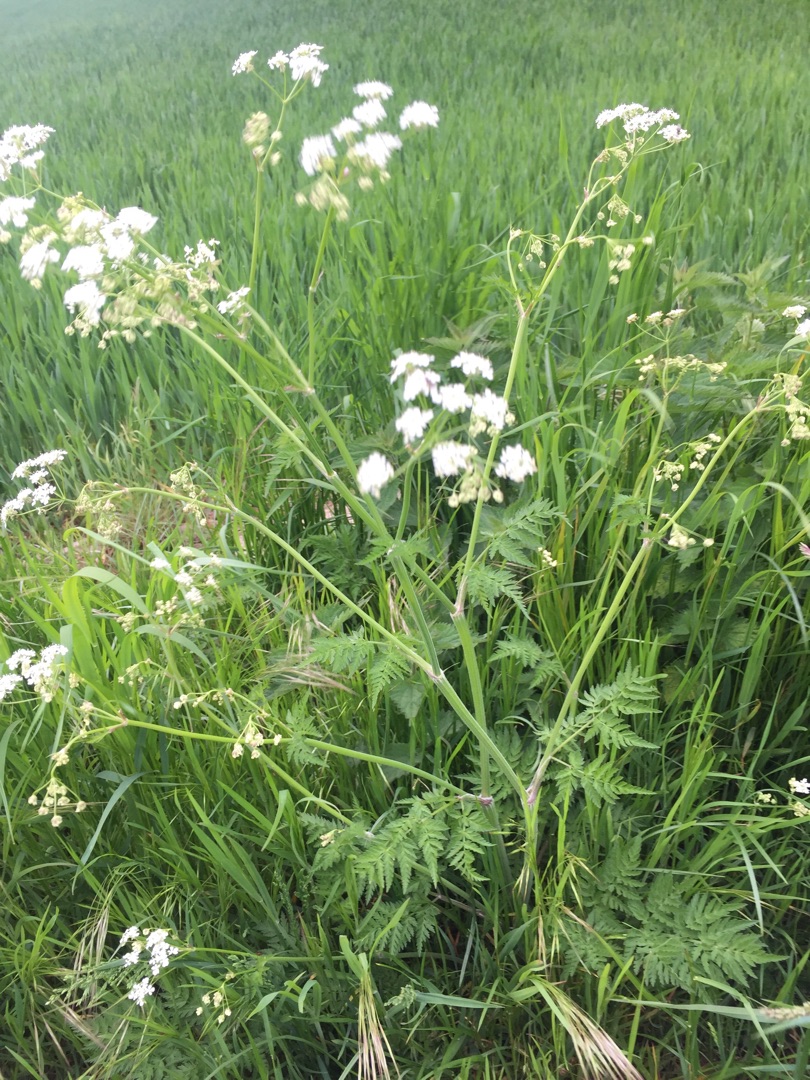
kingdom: Plantae
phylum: Tracheophyta
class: Magnoliopsida
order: Apiales
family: Apiaceae
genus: Anthriscus
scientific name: Anthriscus sylvestris
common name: Vild kørvel
